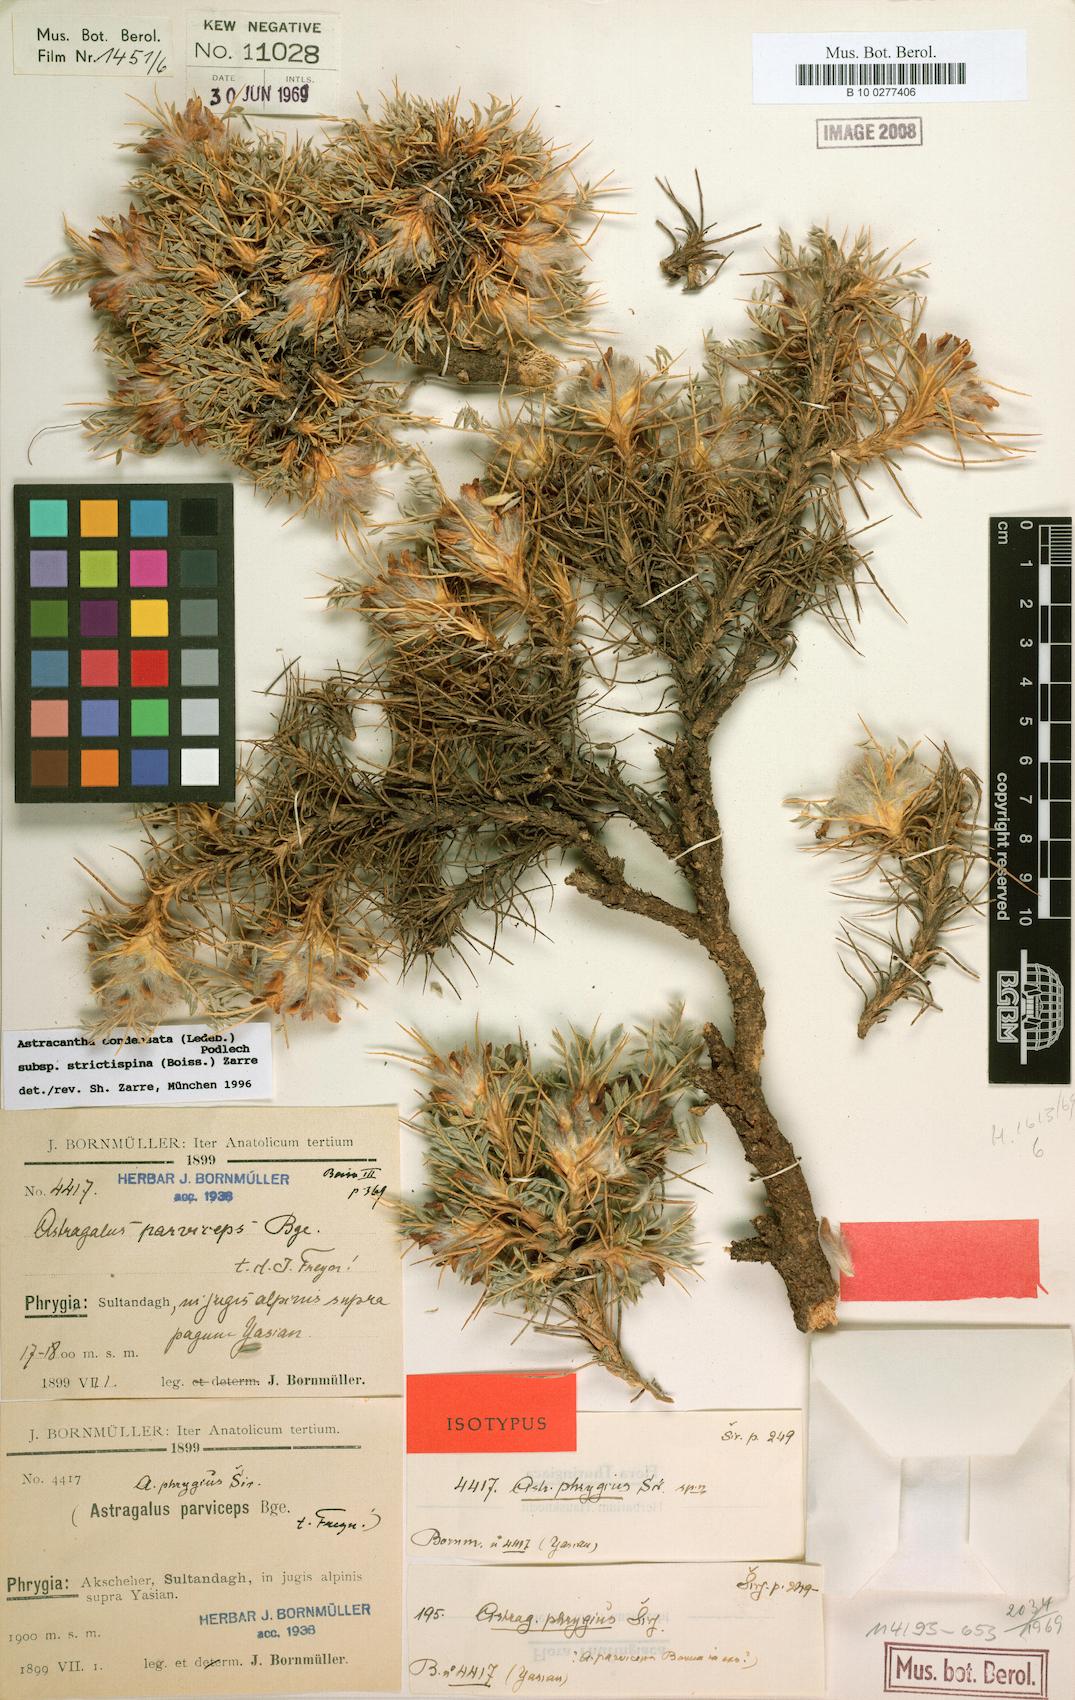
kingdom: Plantae
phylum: Tracheophyta
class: Magnoliopsida
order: Fabales
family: Fabaceae
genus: Astragalus
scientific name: Astragalus condensatus
